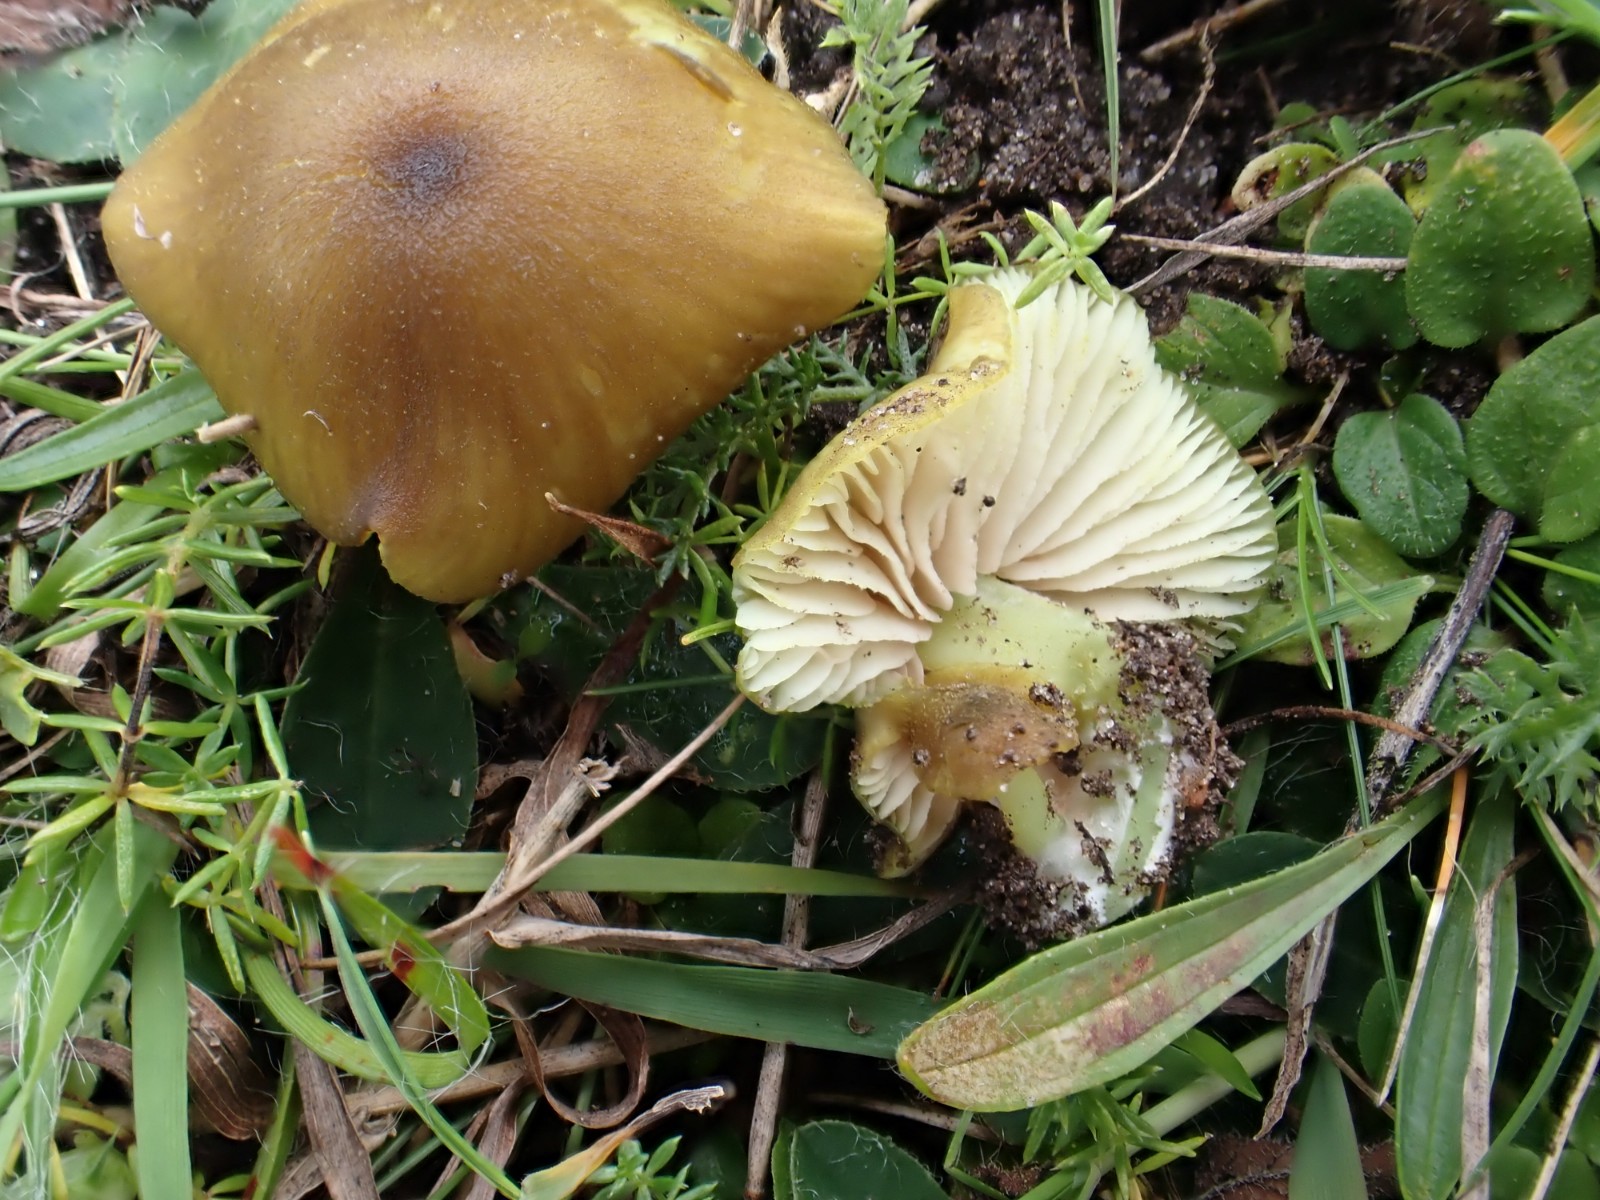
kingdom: Fungi
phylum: Basidiomycota
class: Agaricomycetes
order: Agaricales
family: Entolomataceae
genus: Entoloma
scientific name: Entoloma incanum
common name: grøngul rødblad
